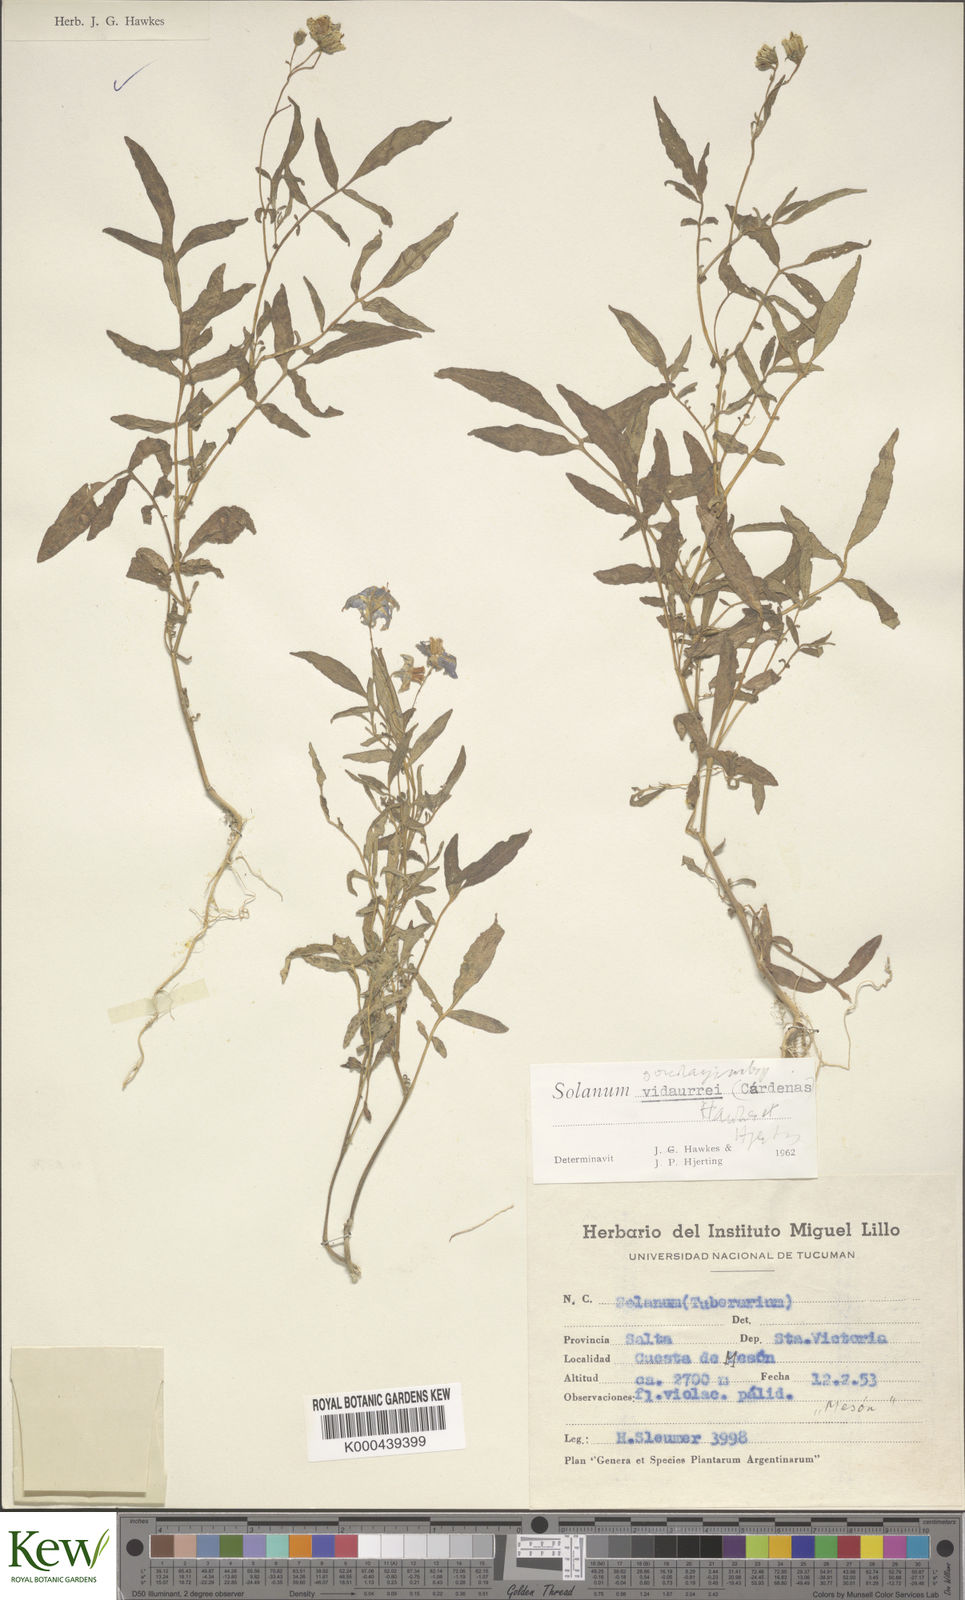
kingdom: Plantae
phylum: Tracheophyta
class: Magnoliopsida
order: Solanales
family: Solanaceae
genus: Solanum
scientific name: Solanum brevicaule
